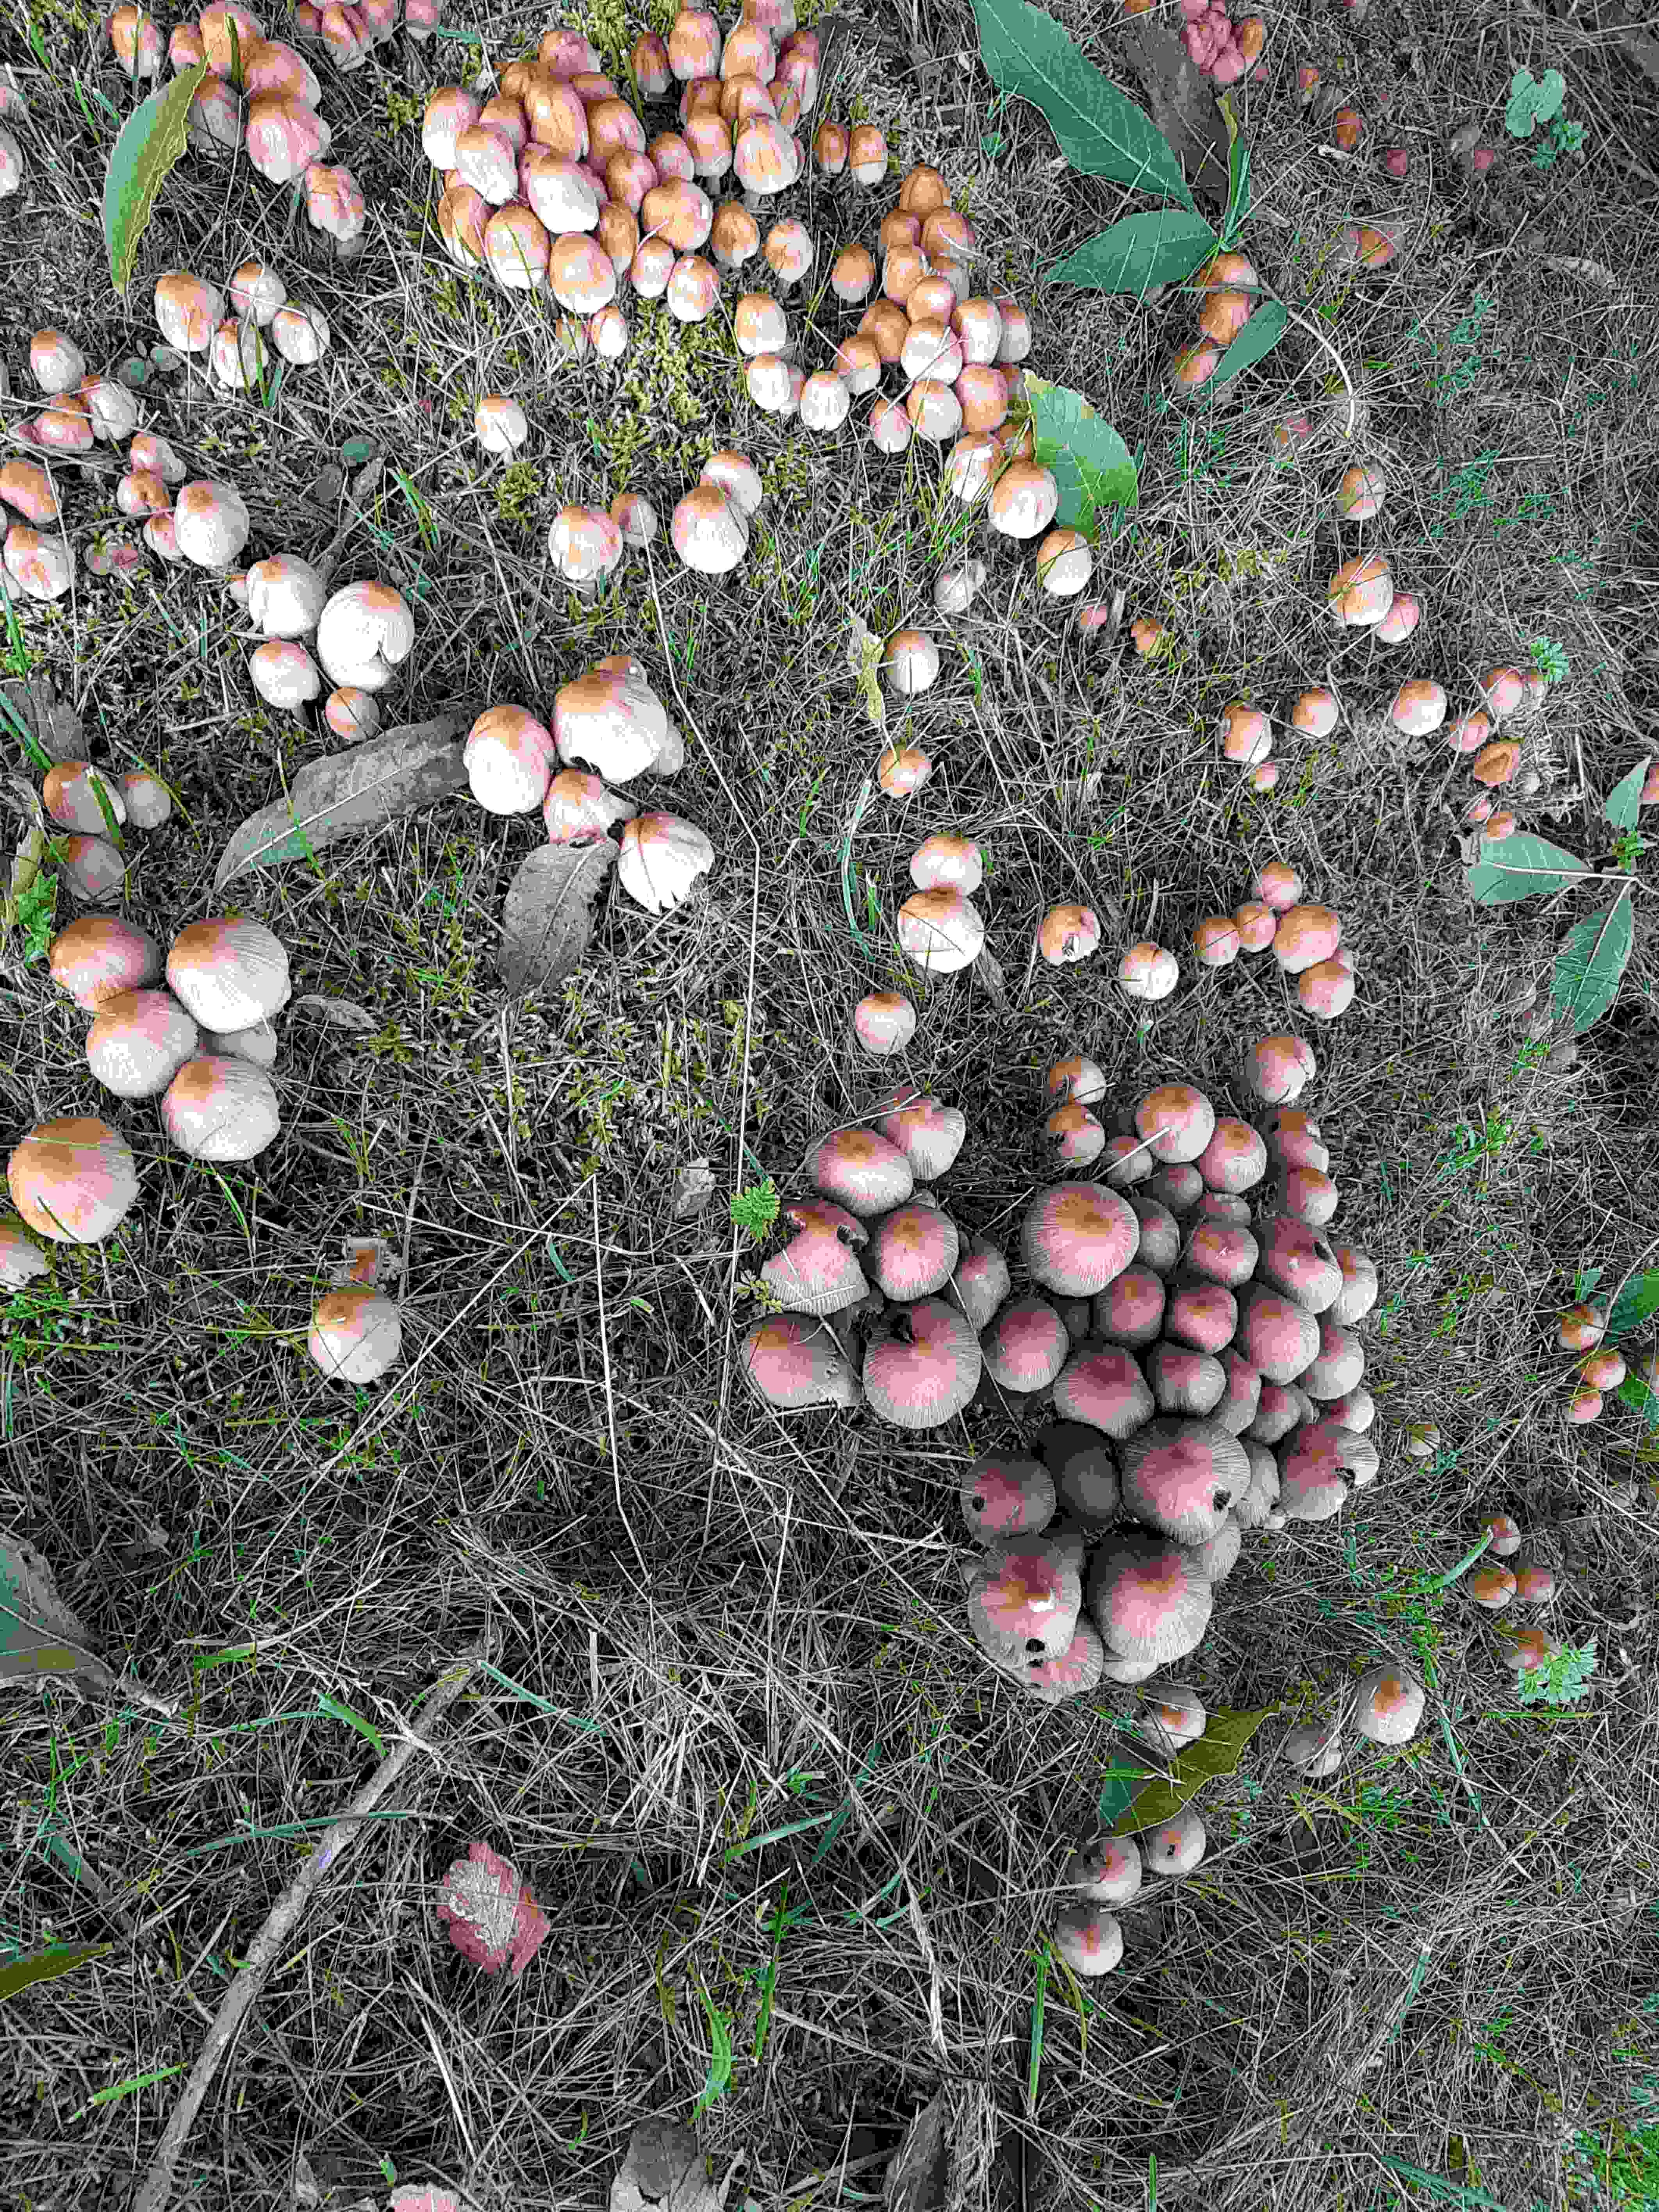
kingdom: Fungi
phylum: Basidiomycota
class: Agaricomycetes
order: Agaricales
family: Psathyrellaceae
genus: Coprinellus
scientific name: Coprinellus
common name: blækhat
